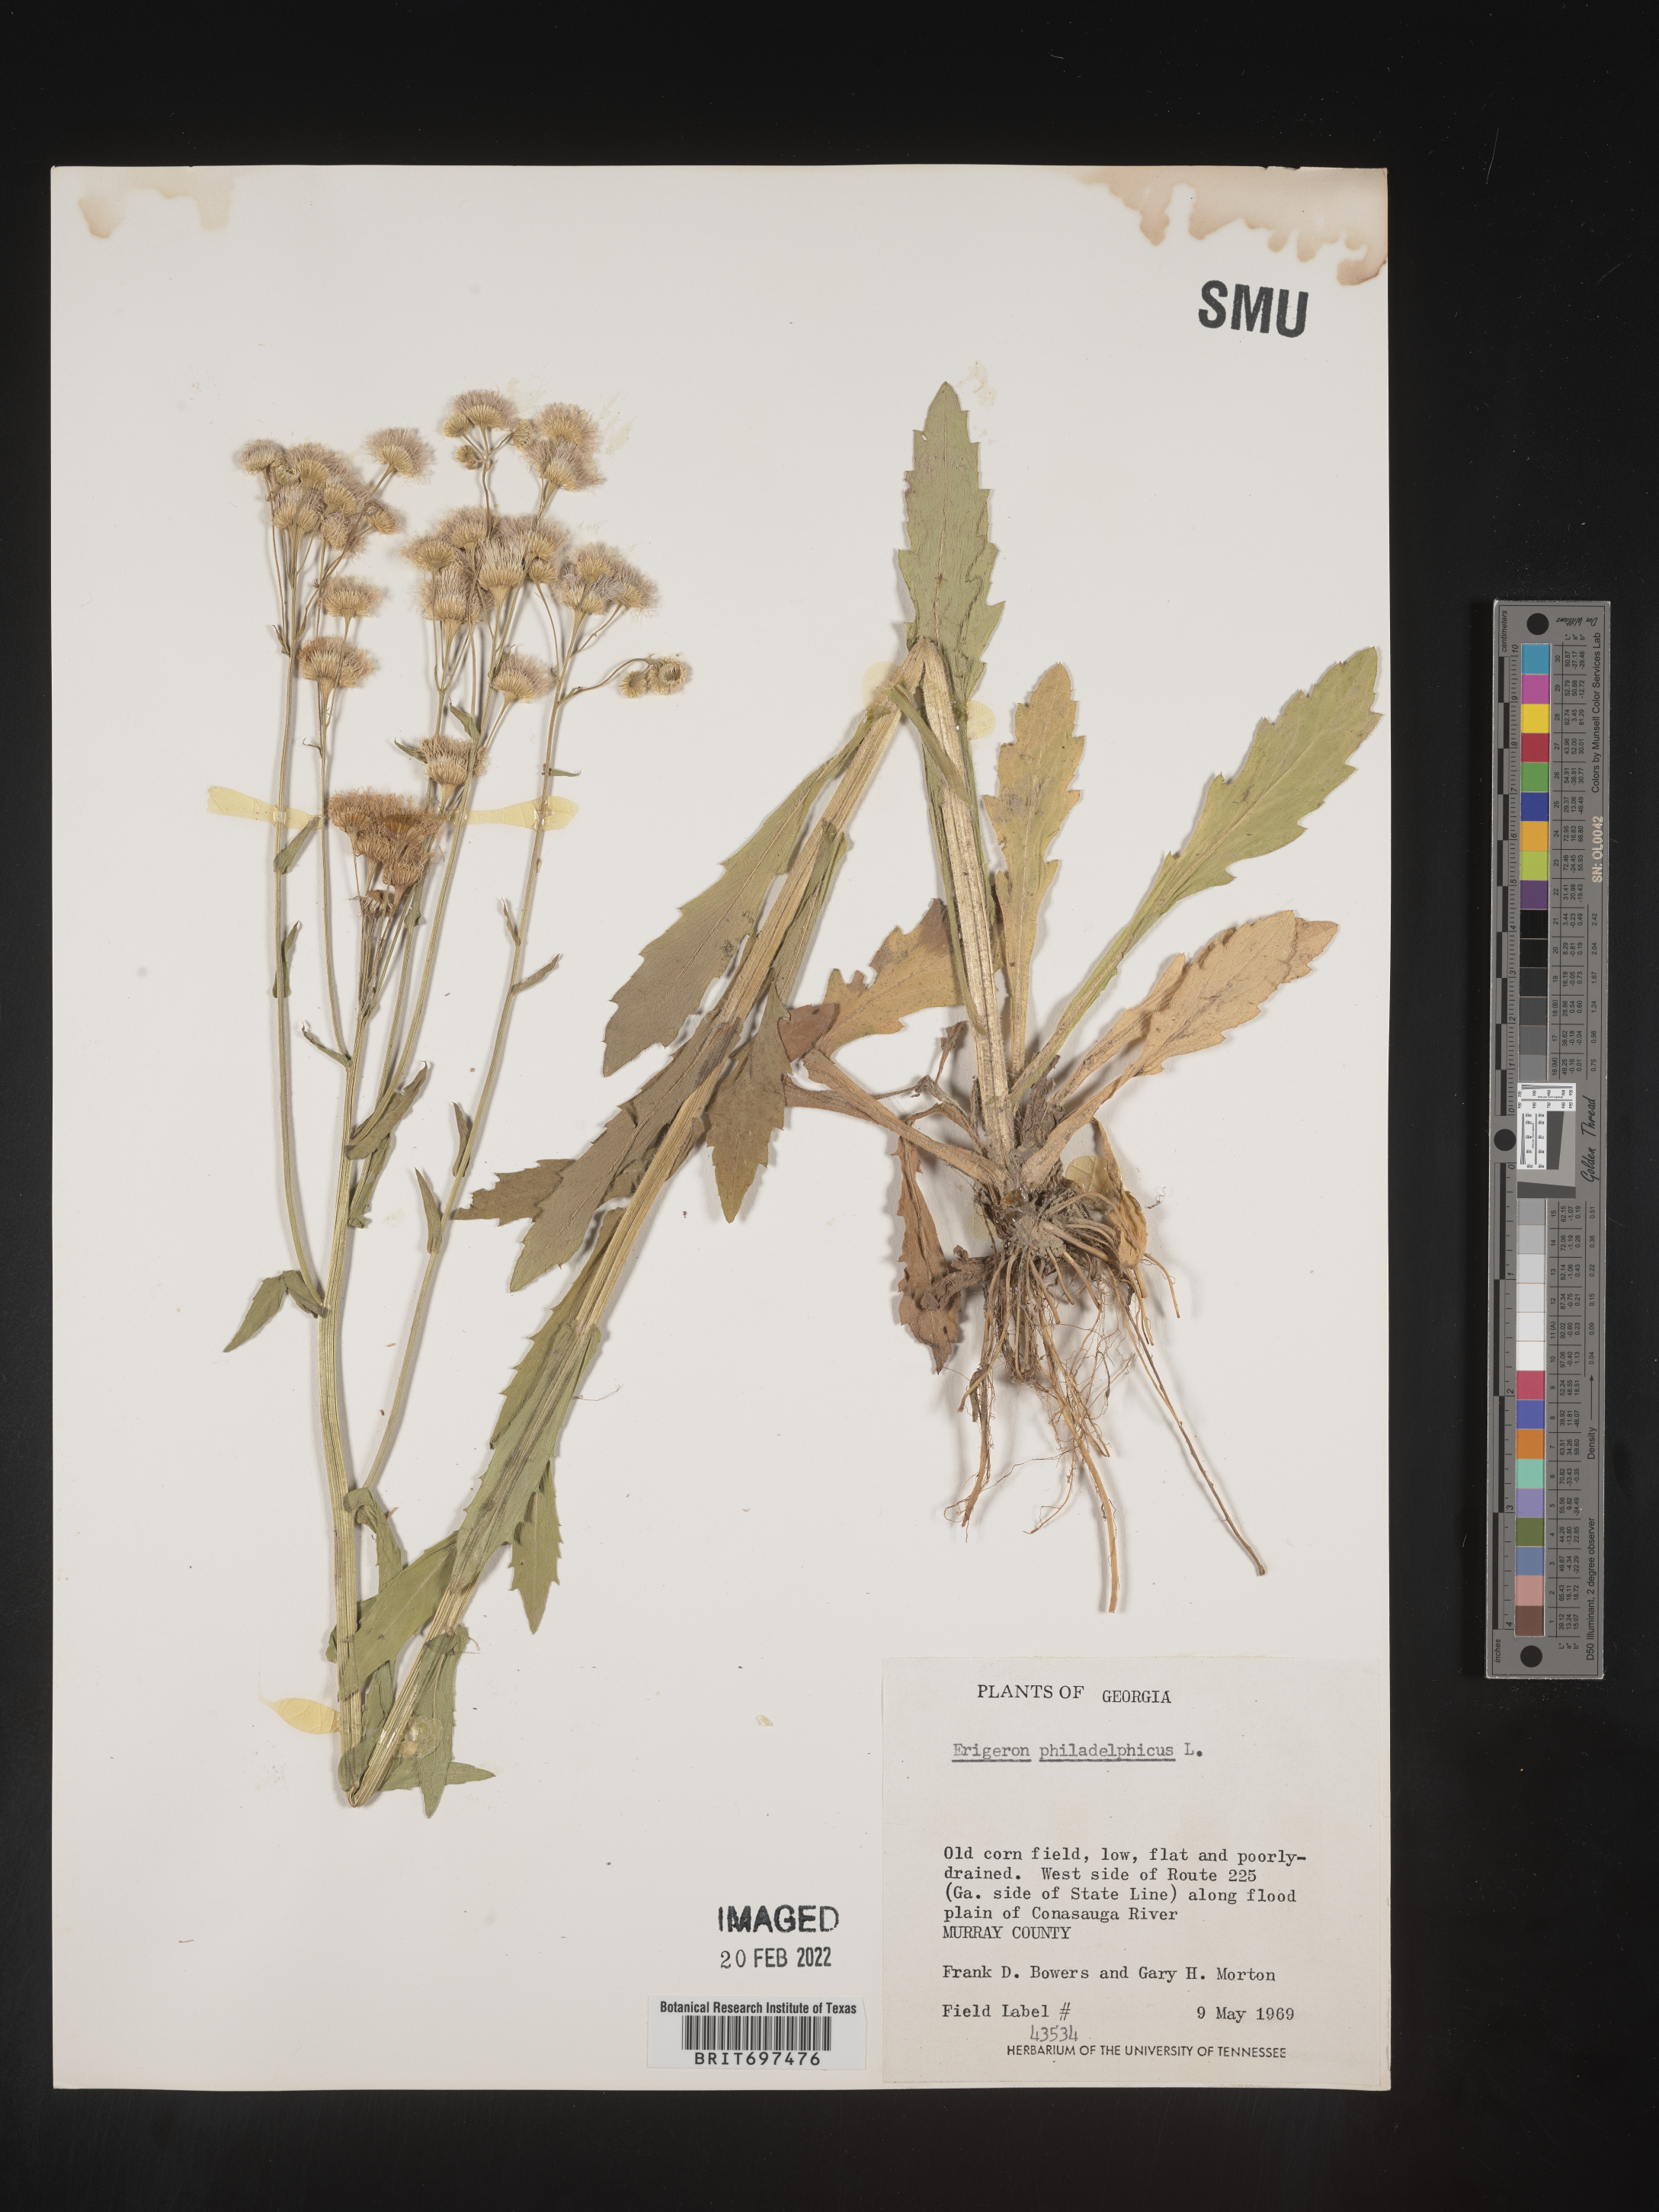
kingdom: Plantae
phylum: Tracheophyta
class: Magnoliopsida
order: Asterales
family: Asteraceae
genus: Erigeron
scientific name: Erigeron philadelphicus
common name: Robin's-plantain
